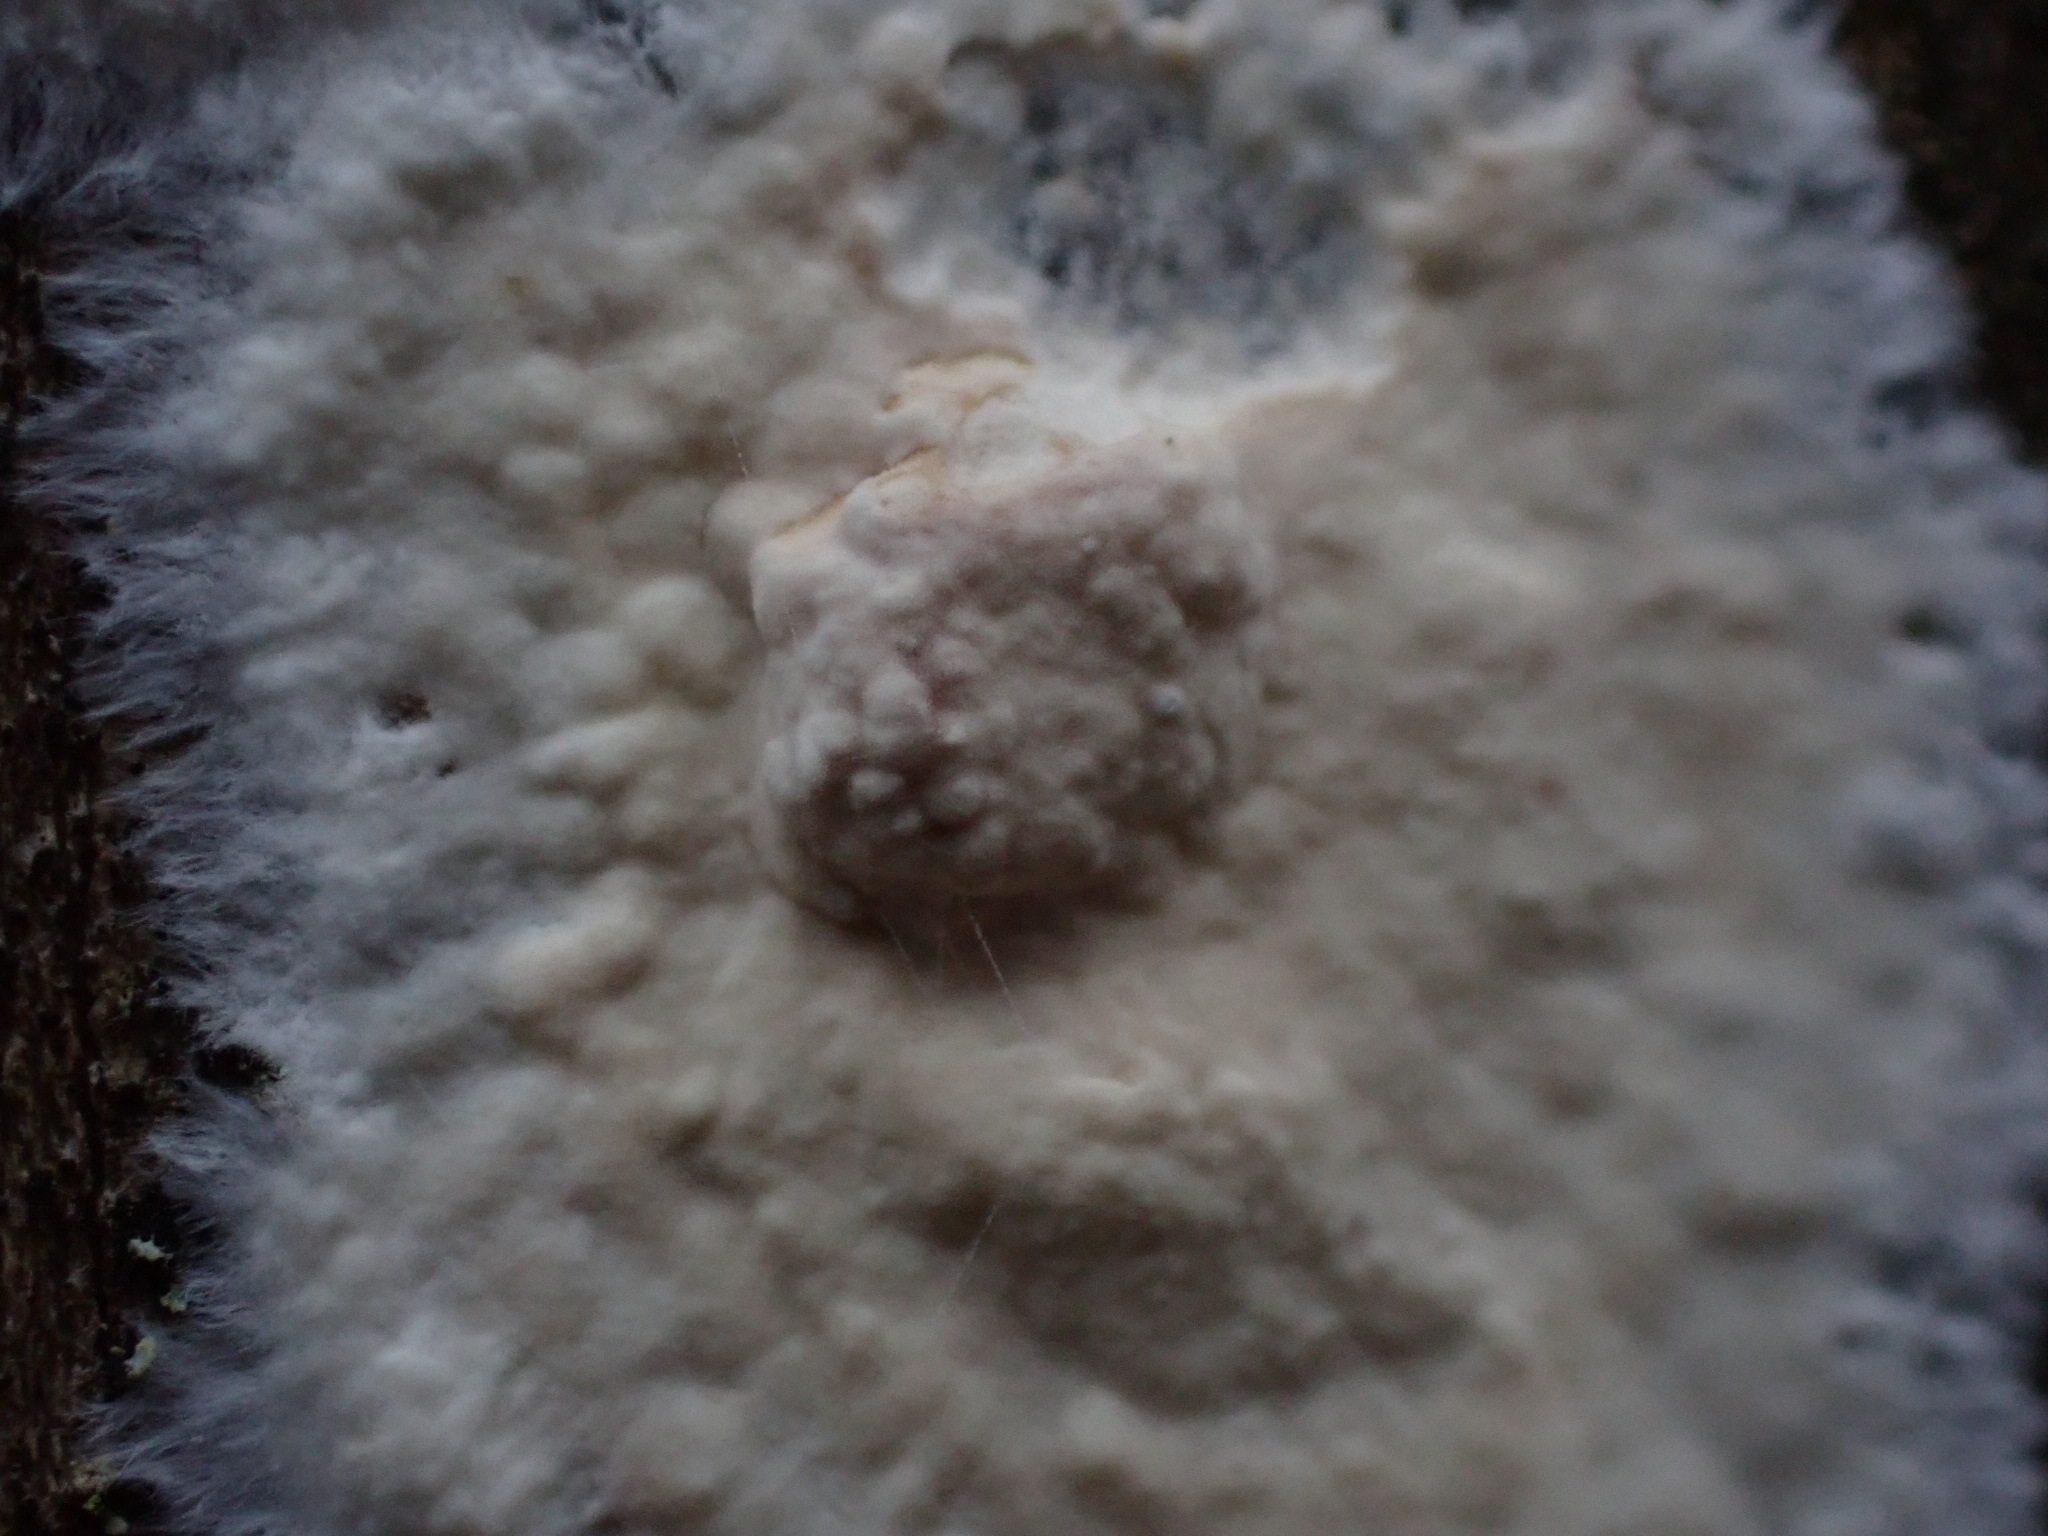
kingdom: Fungi
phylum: Basidiomycota
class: Agaricomycetes
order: Agaricales
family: Physalacriaceae
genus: Cylindrobasidium
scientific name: Cylindrobasidium evolvens
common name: sprækkehinde
